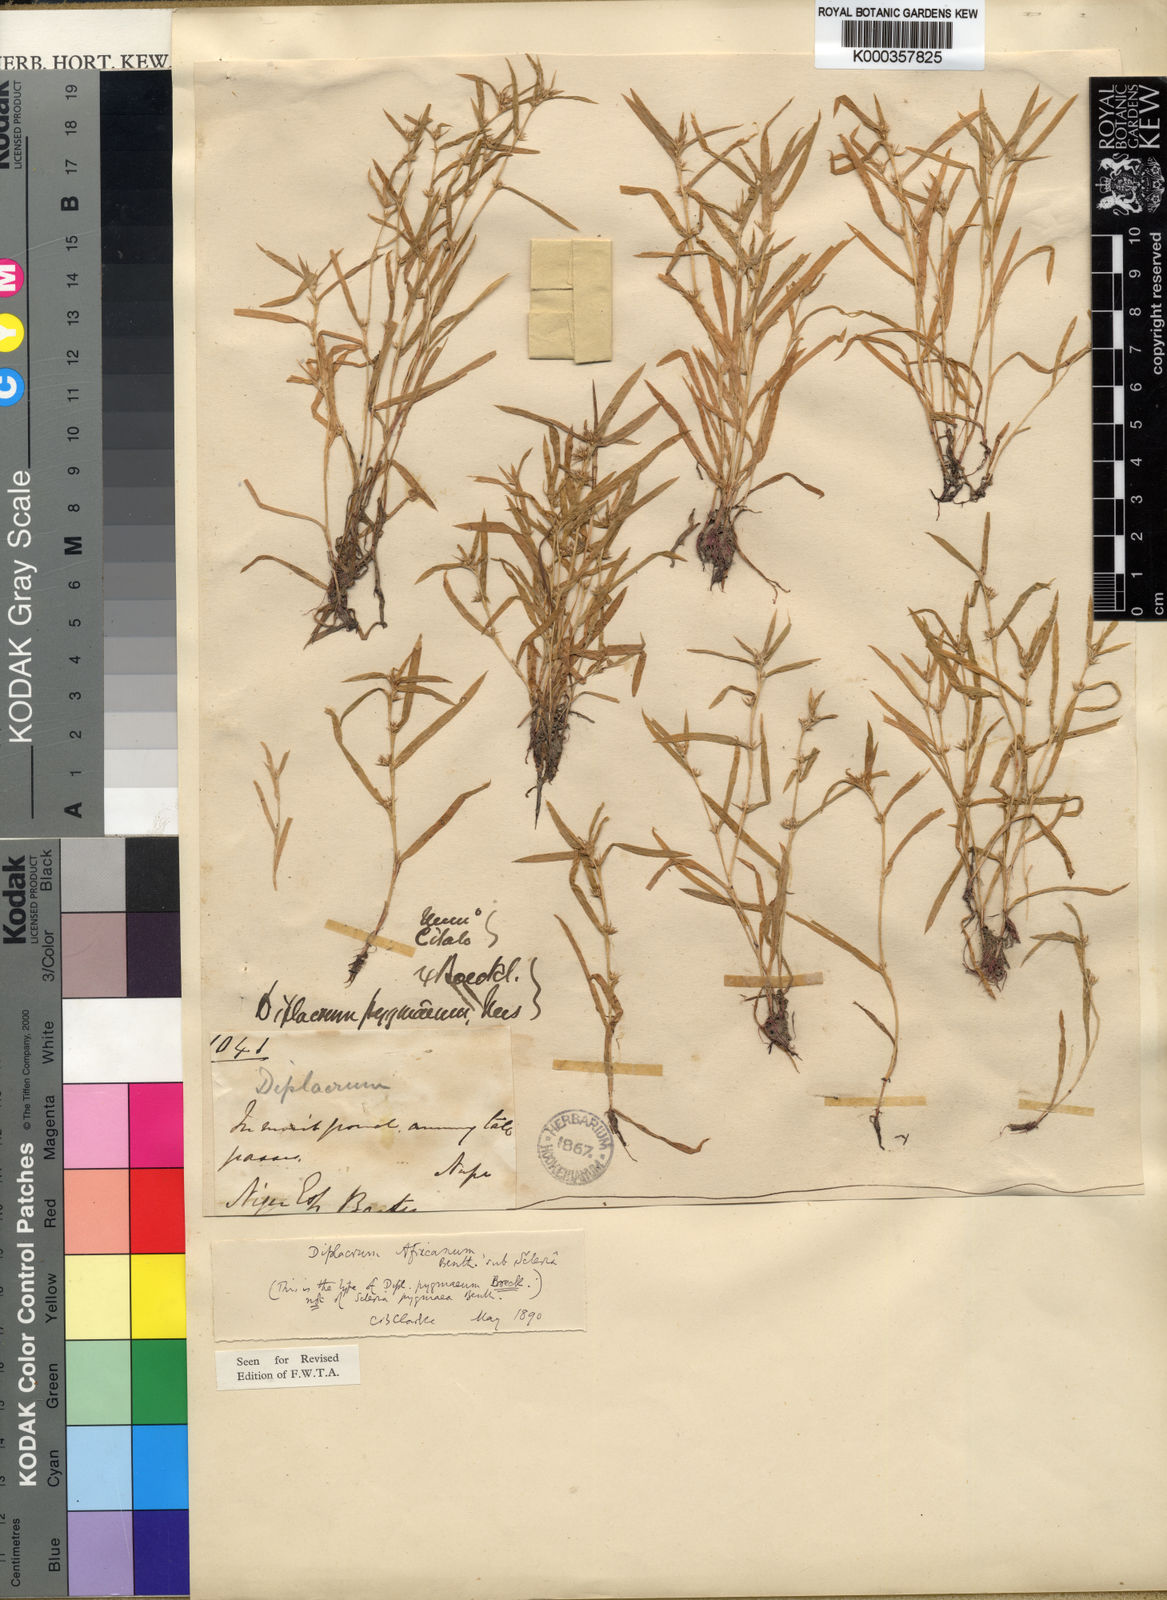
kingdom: Plantae
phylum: Tracheophyta
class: Liliopsida
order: Poales
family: Cyperaceae
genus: Diplacrum
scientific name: Diplacrum africanum
